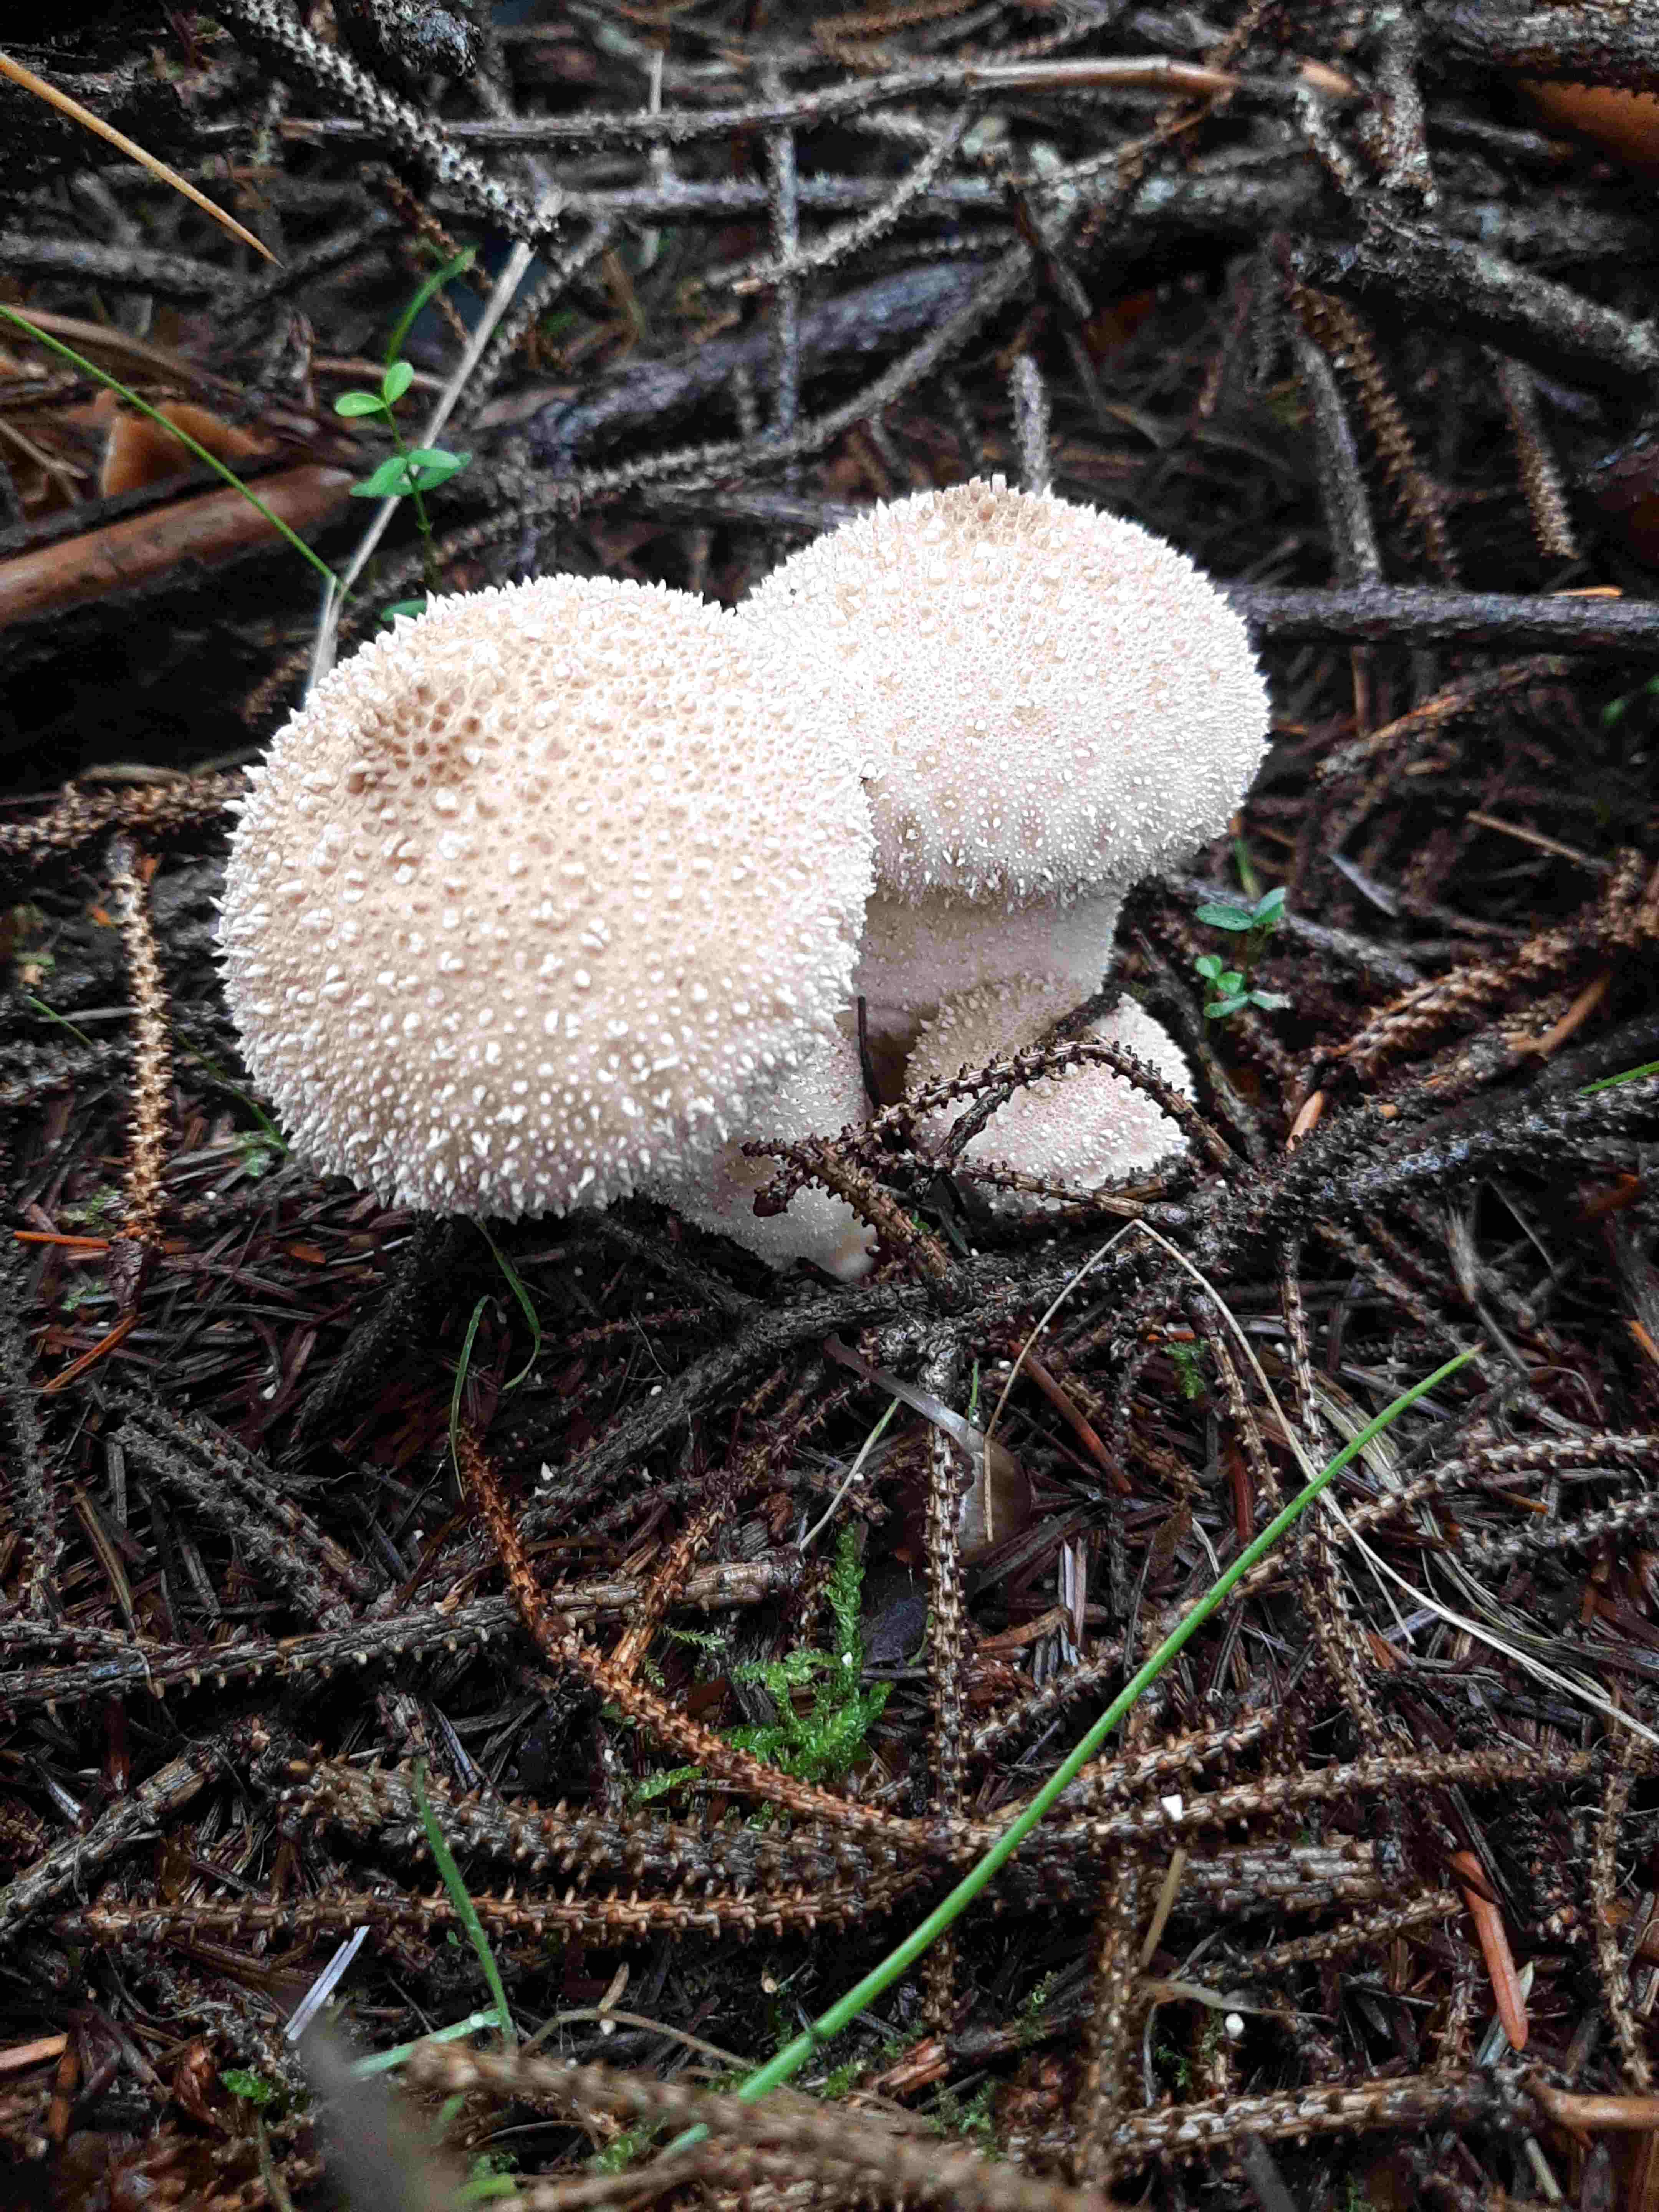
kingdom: Fungi
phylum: Basidiomycota
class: Agaricomycetes
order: Agaricales
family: Lycoperdaceae
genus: Lycoperdon
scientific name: Lycoperdon perlatum
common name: krystal-støvbold
